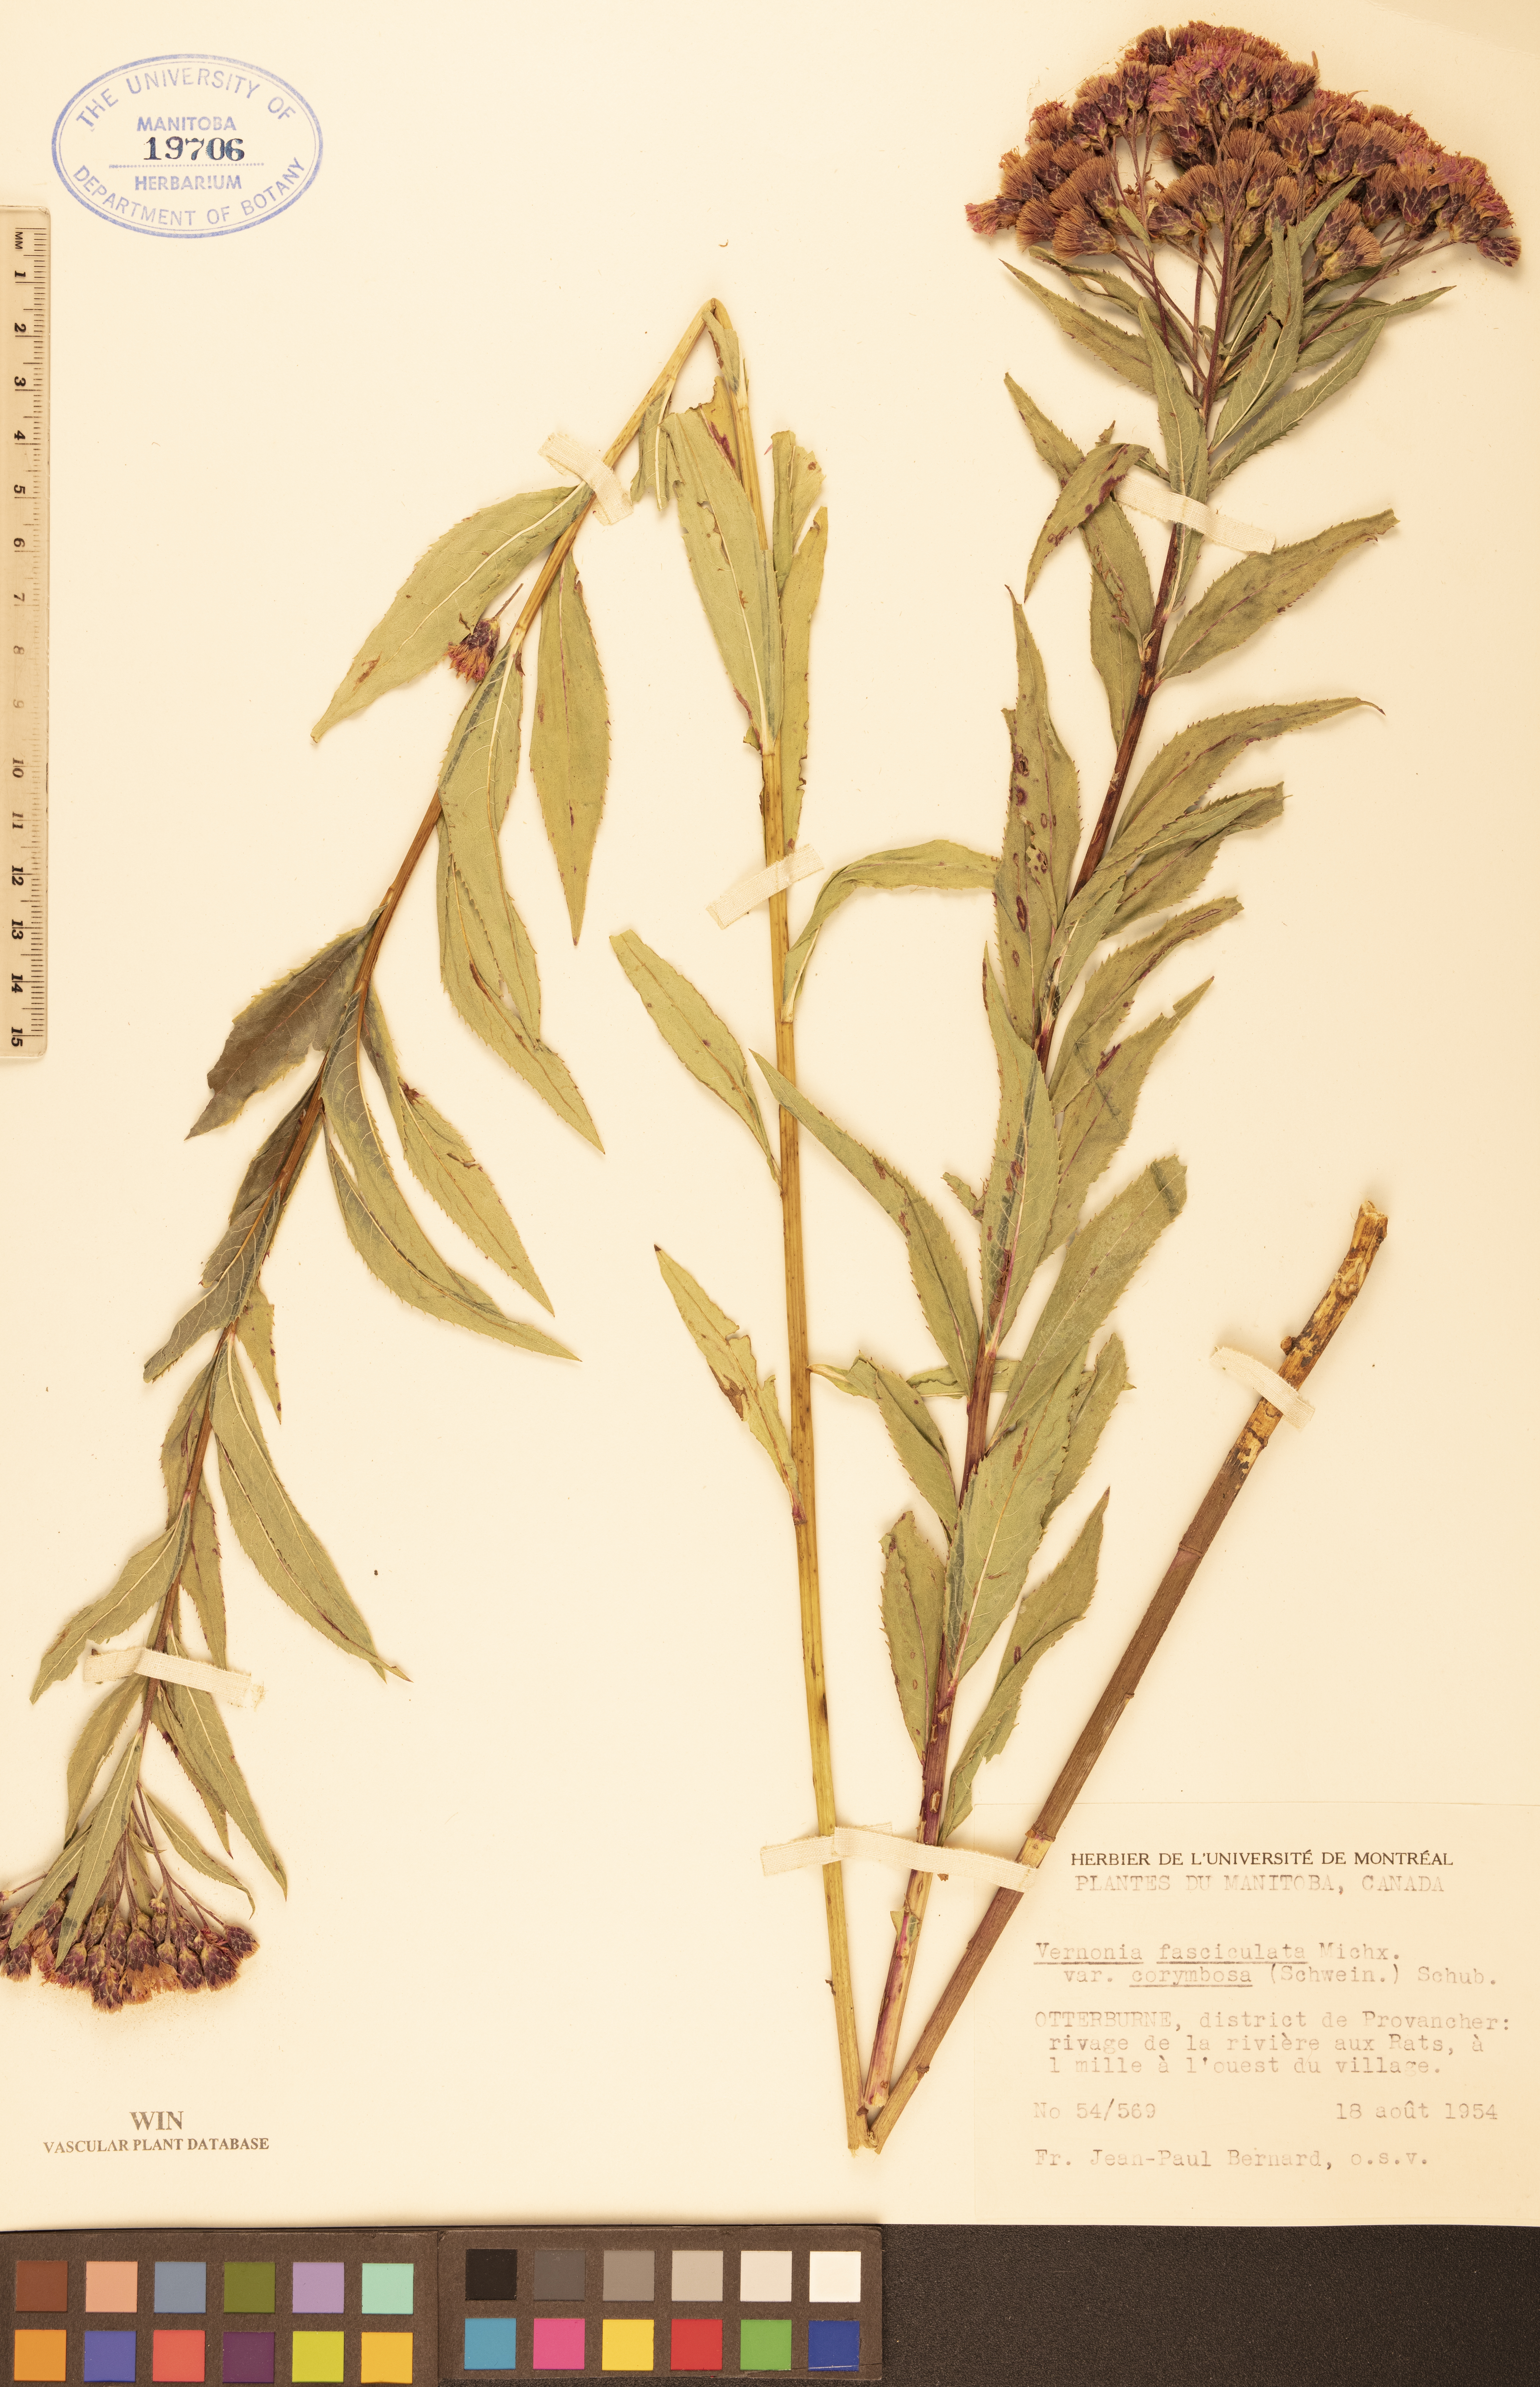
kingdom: Plantae
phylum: Tracheophyta
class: Magnoliopsida
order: Asterales
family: Asteraceae
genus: Vernonia
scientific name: Vernonia fasciculata
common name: Fascicled ironweed
